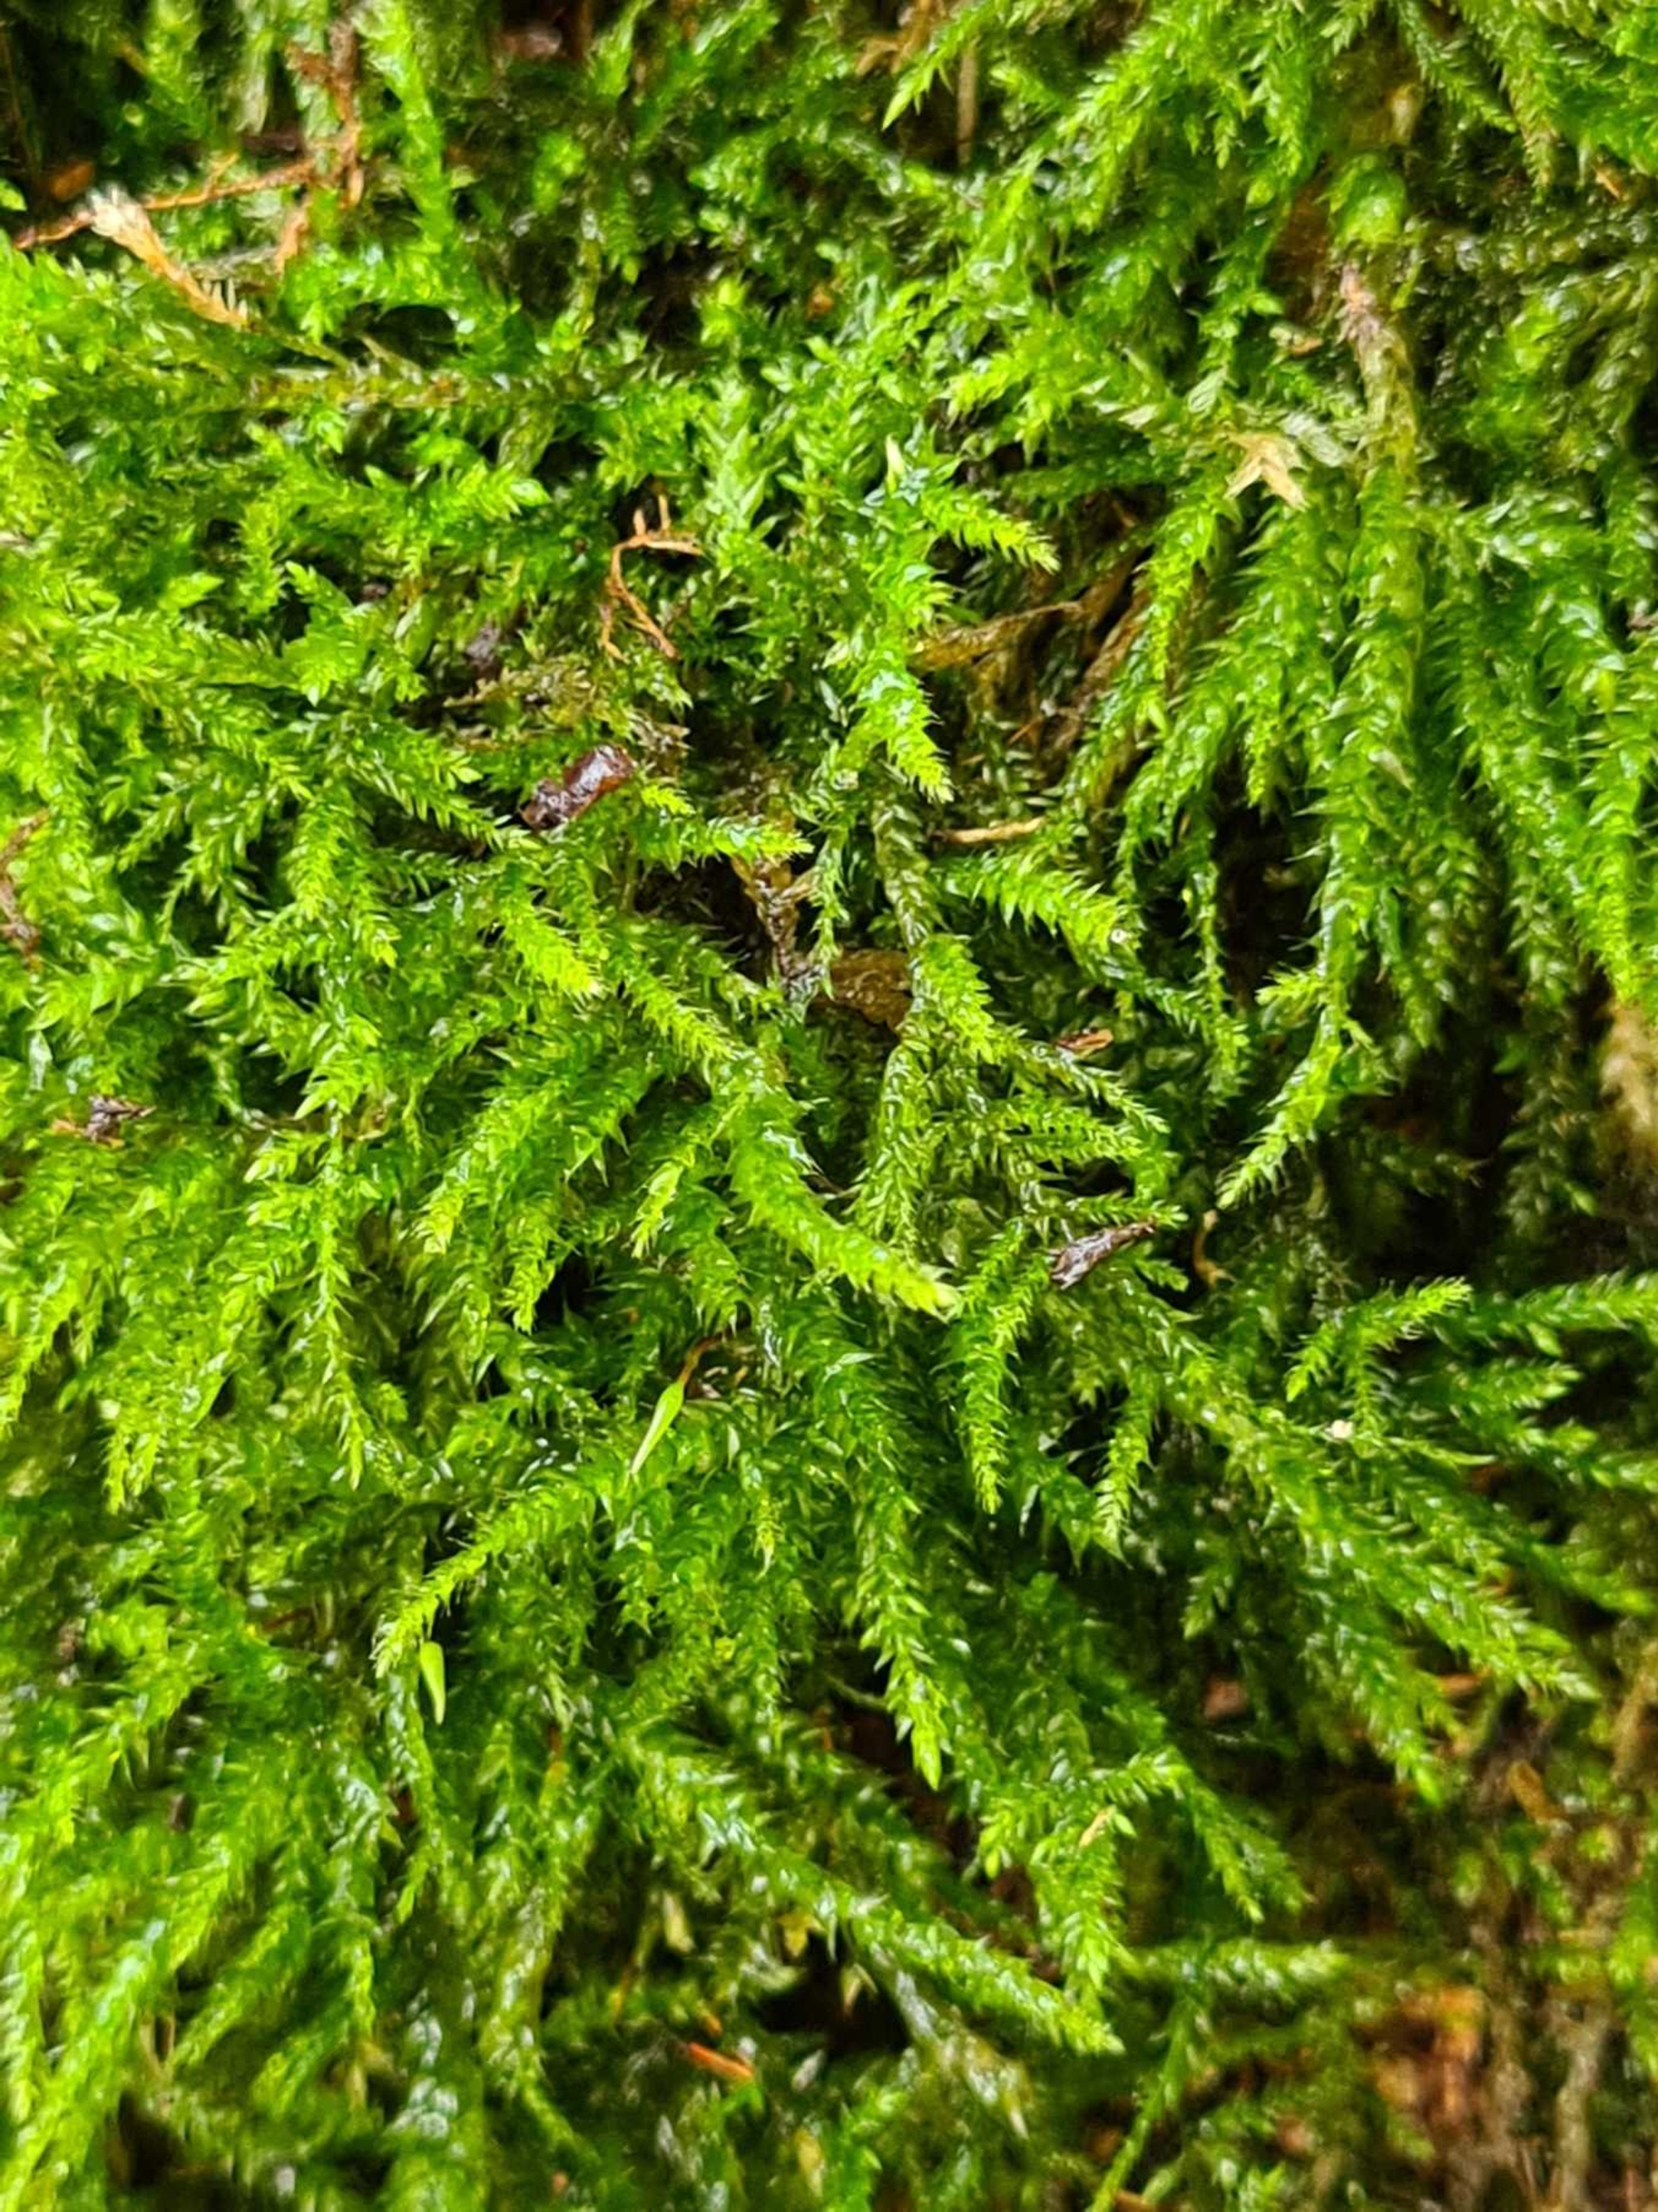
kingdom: Plantae
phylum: Bryophyta
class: Bryopsida
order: Hypnales
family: Lembophyllaceae
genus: Isothecium
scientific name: Isothecium alopecuroides
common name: Stor stammemos
